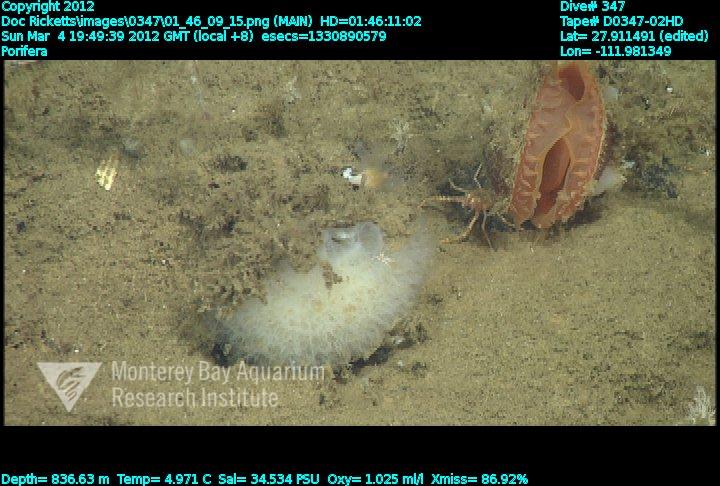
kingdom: Animalia
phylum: Porifera
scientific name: Porifera
